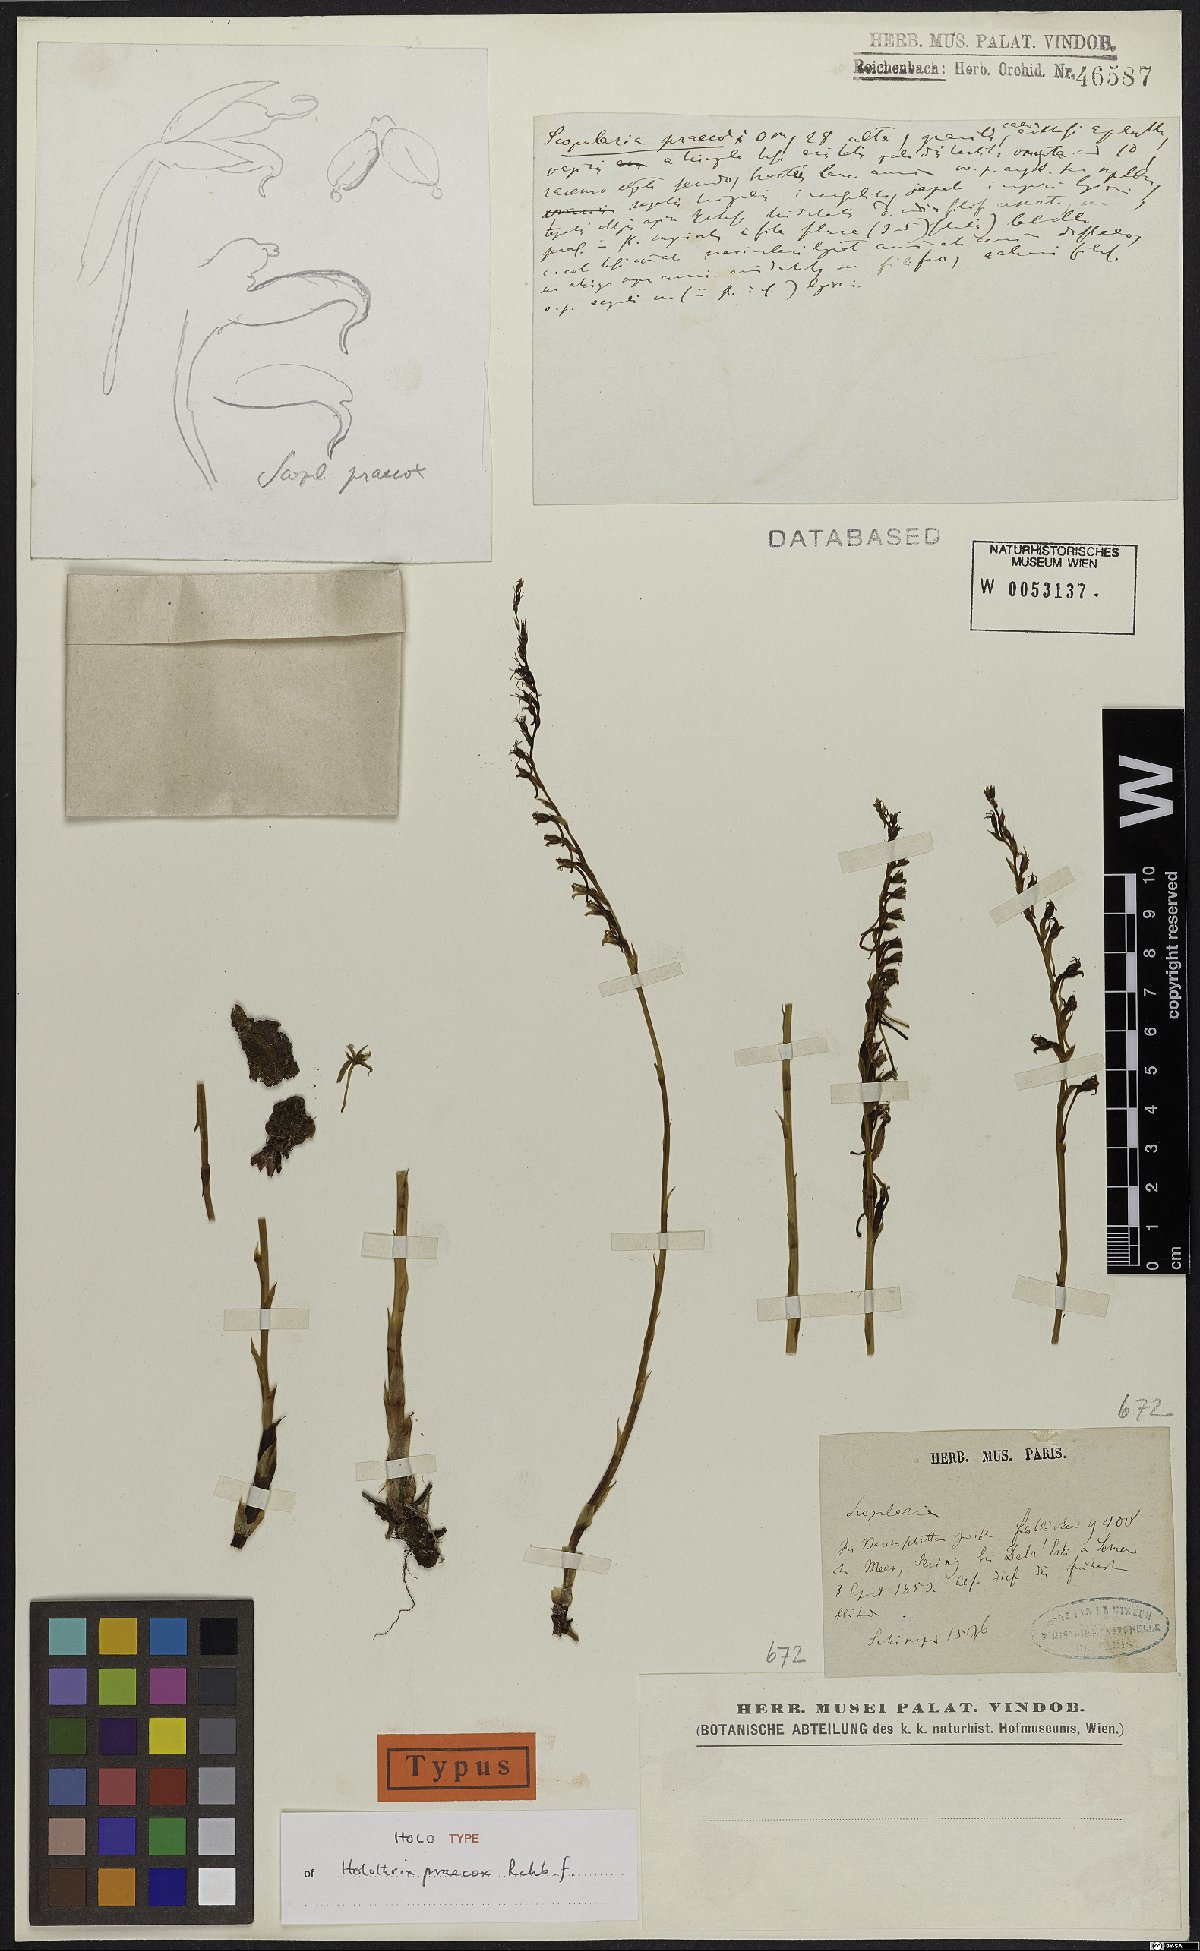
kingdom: Plantae
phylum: Tracheophyta
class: Liliopsida
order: Asparagales
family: Orchidaceae
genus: Holothrix
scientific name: Holothrix praecox
